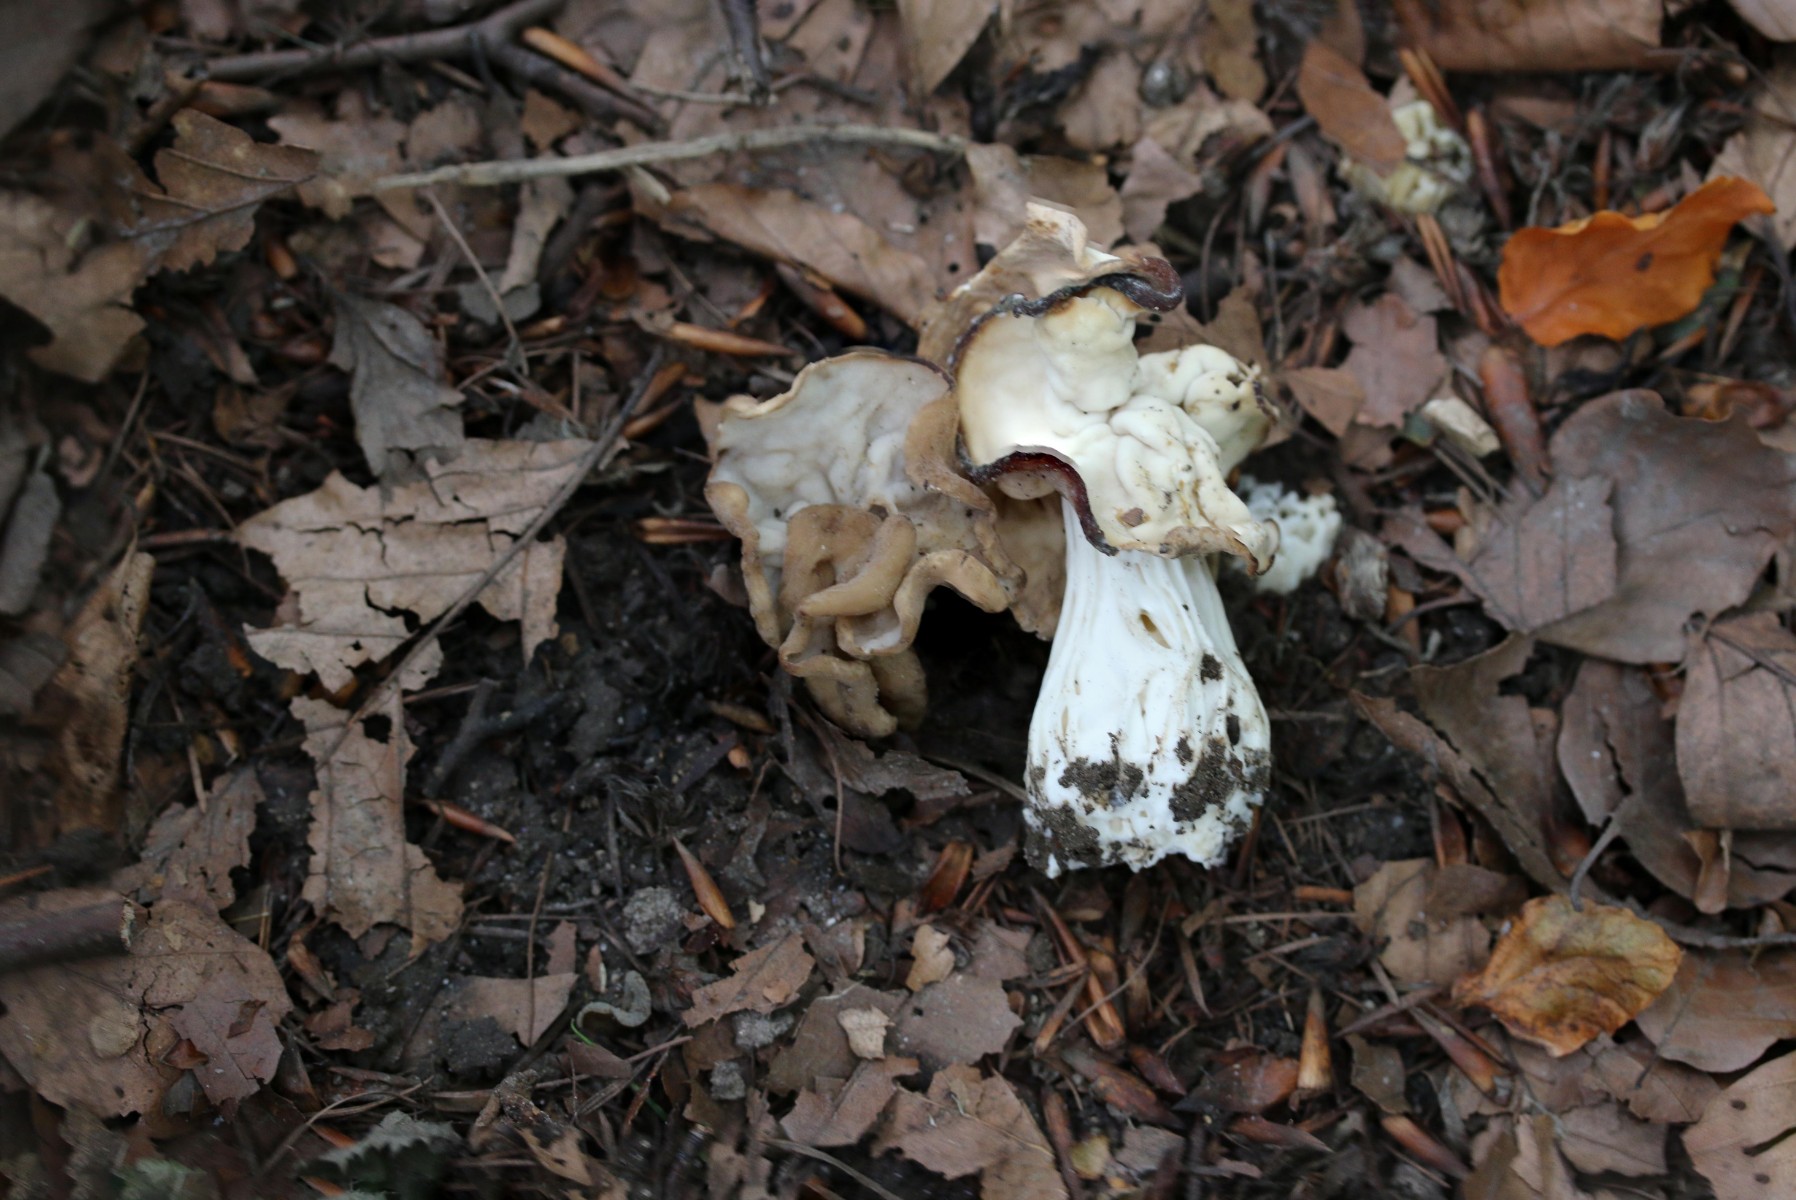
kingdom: Fungi
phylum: Ascomycota
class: Pezizomycetes
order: Pezizales
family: Helvellaceae
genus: Helvella
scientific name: Helvella crispa
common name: kruset foldhat
